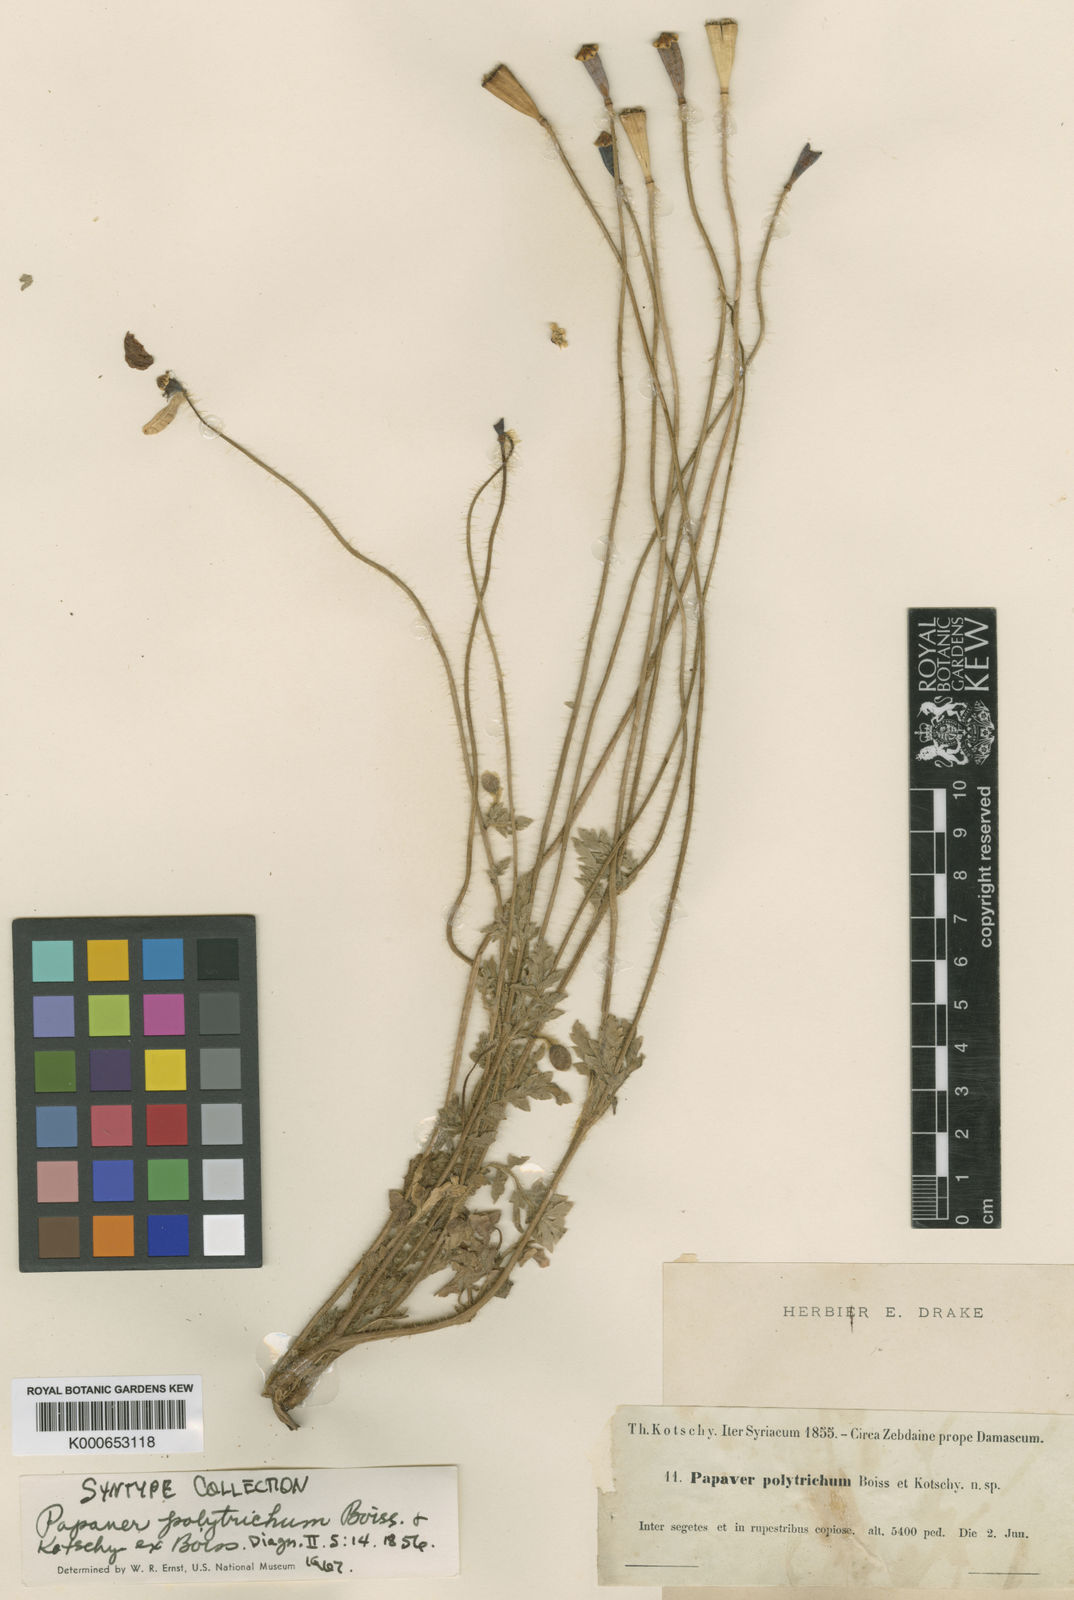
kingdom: Plantae
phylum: Tracheophyta
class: Magnoliopsida
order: Ranunculales
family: Papaveraceae
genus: Papaver
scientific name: Papaver rhoeas
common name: Corn poppy
